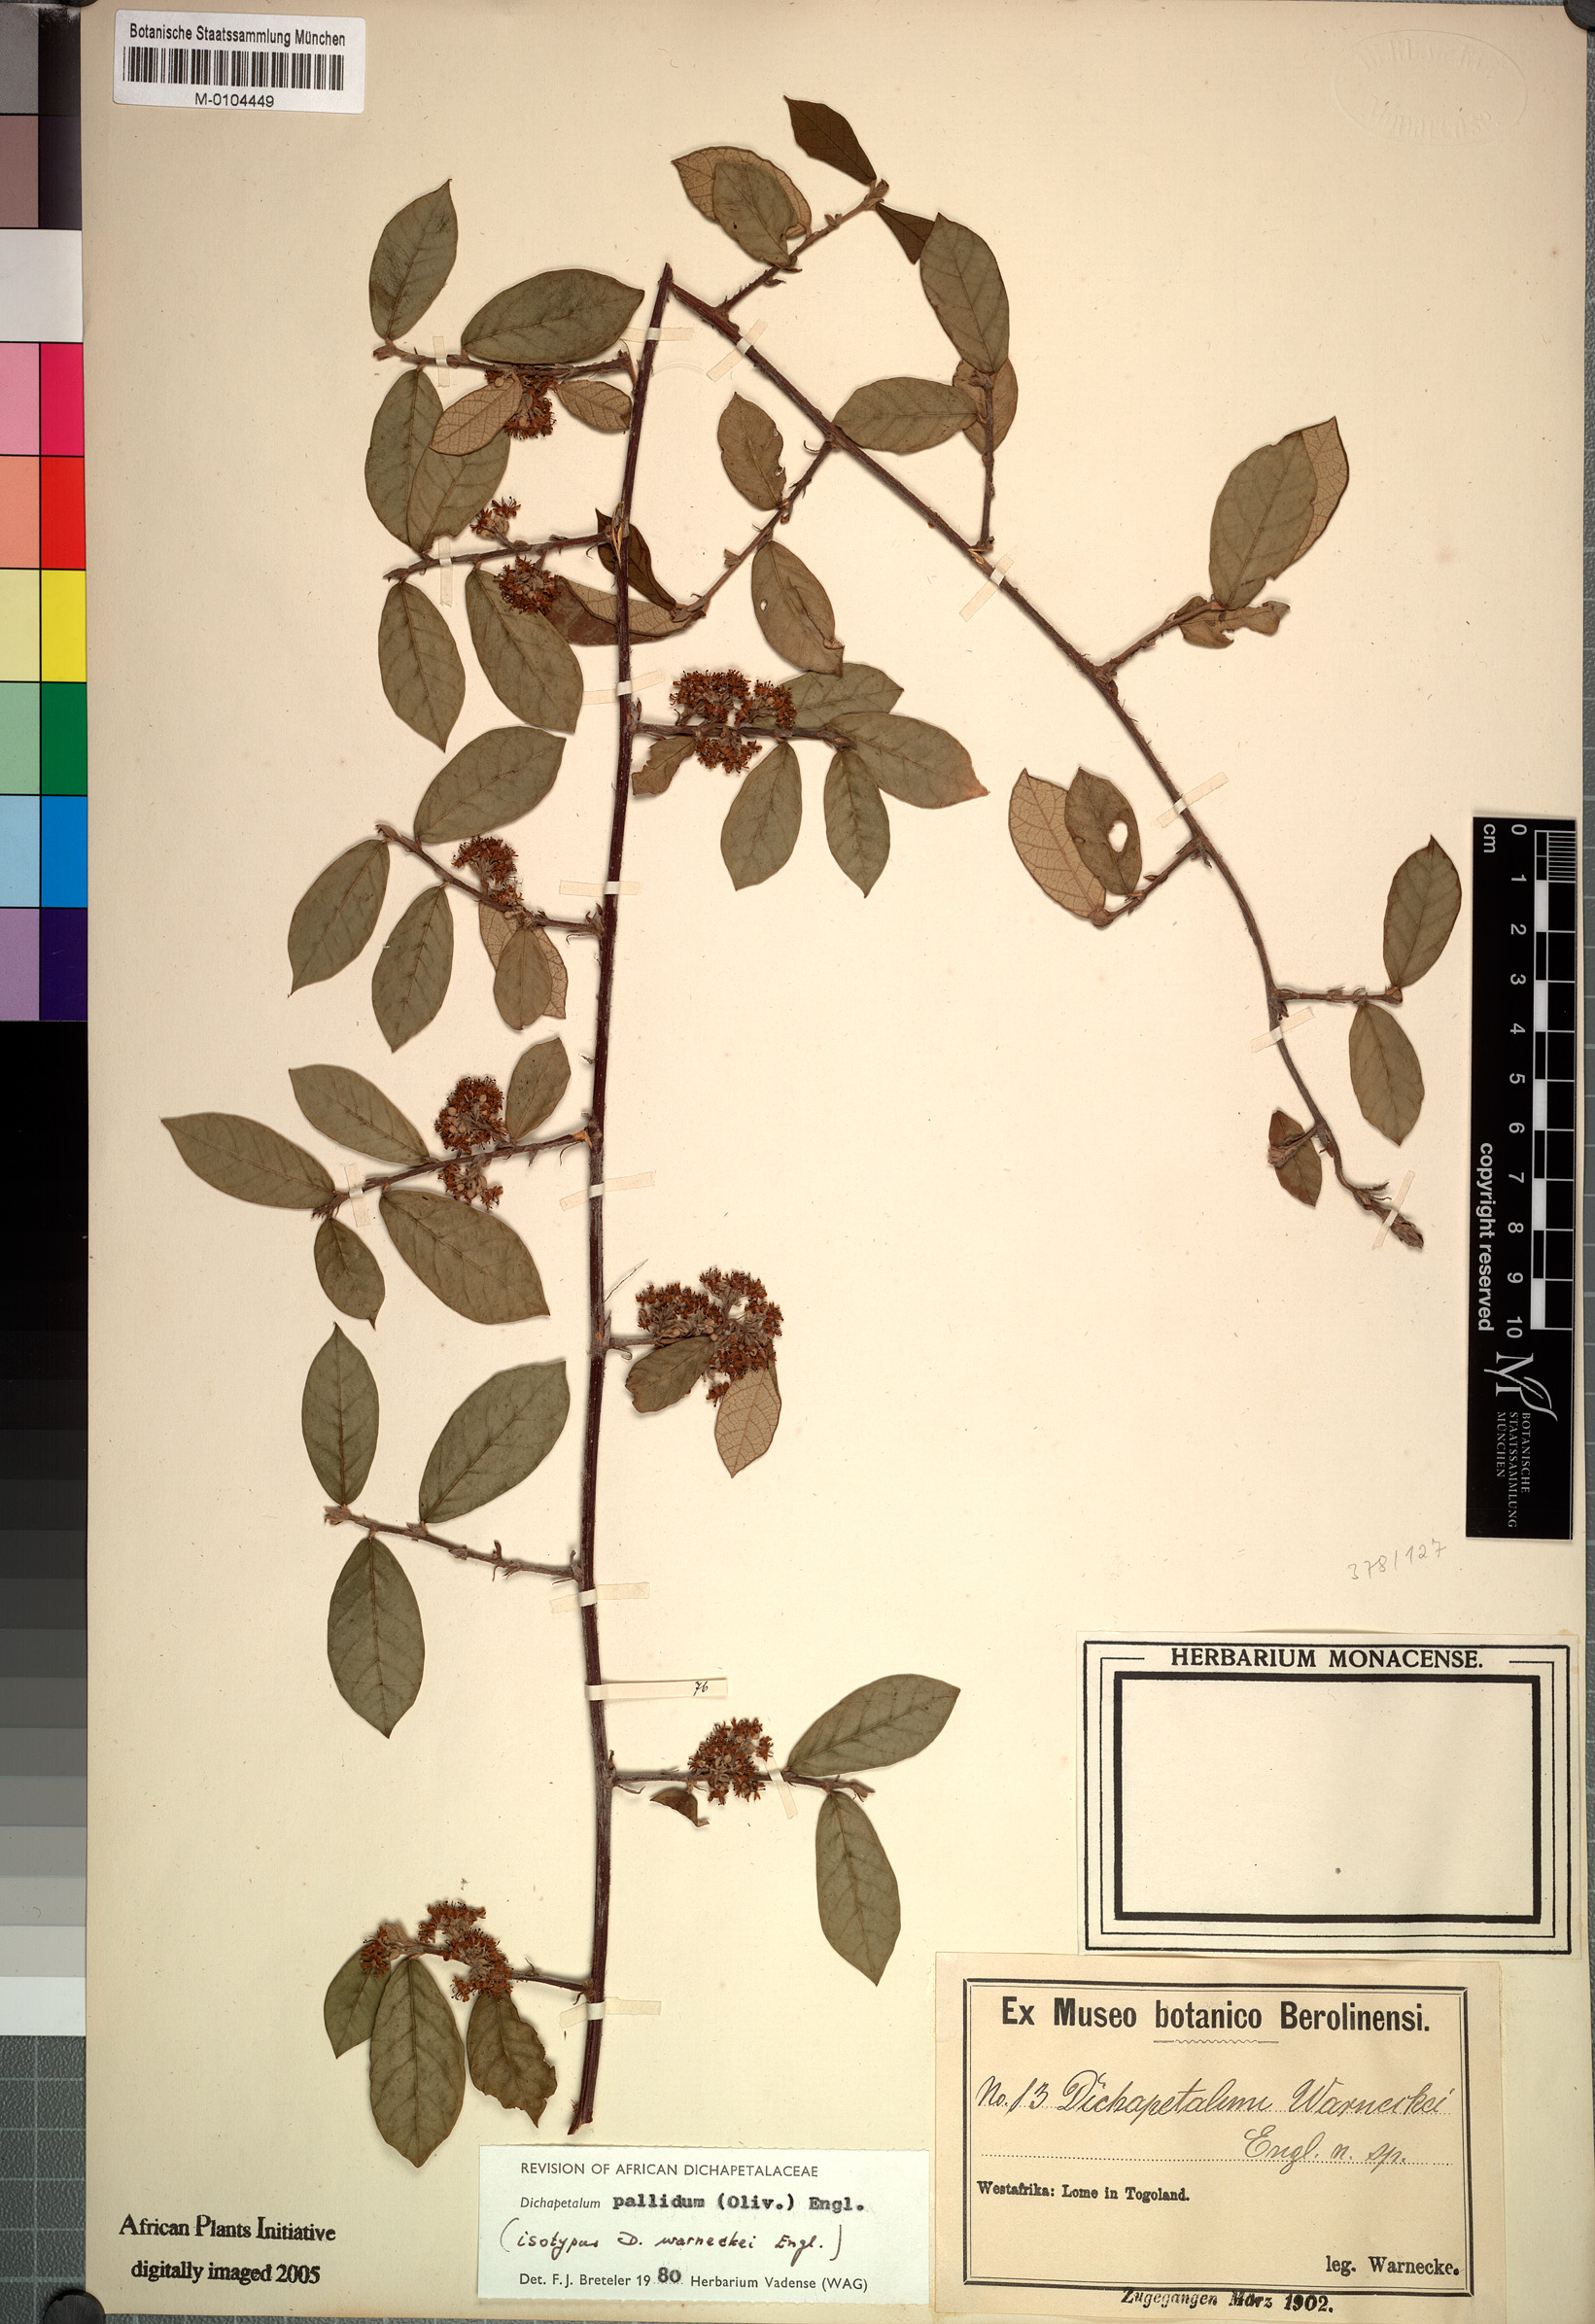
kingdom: Plantae
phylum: Tracheophyta
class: Magnoliopsida
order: Malpighiales
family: Dichapetalaceae
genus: Dichapetalum
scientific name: Dichapetalum pallidum
